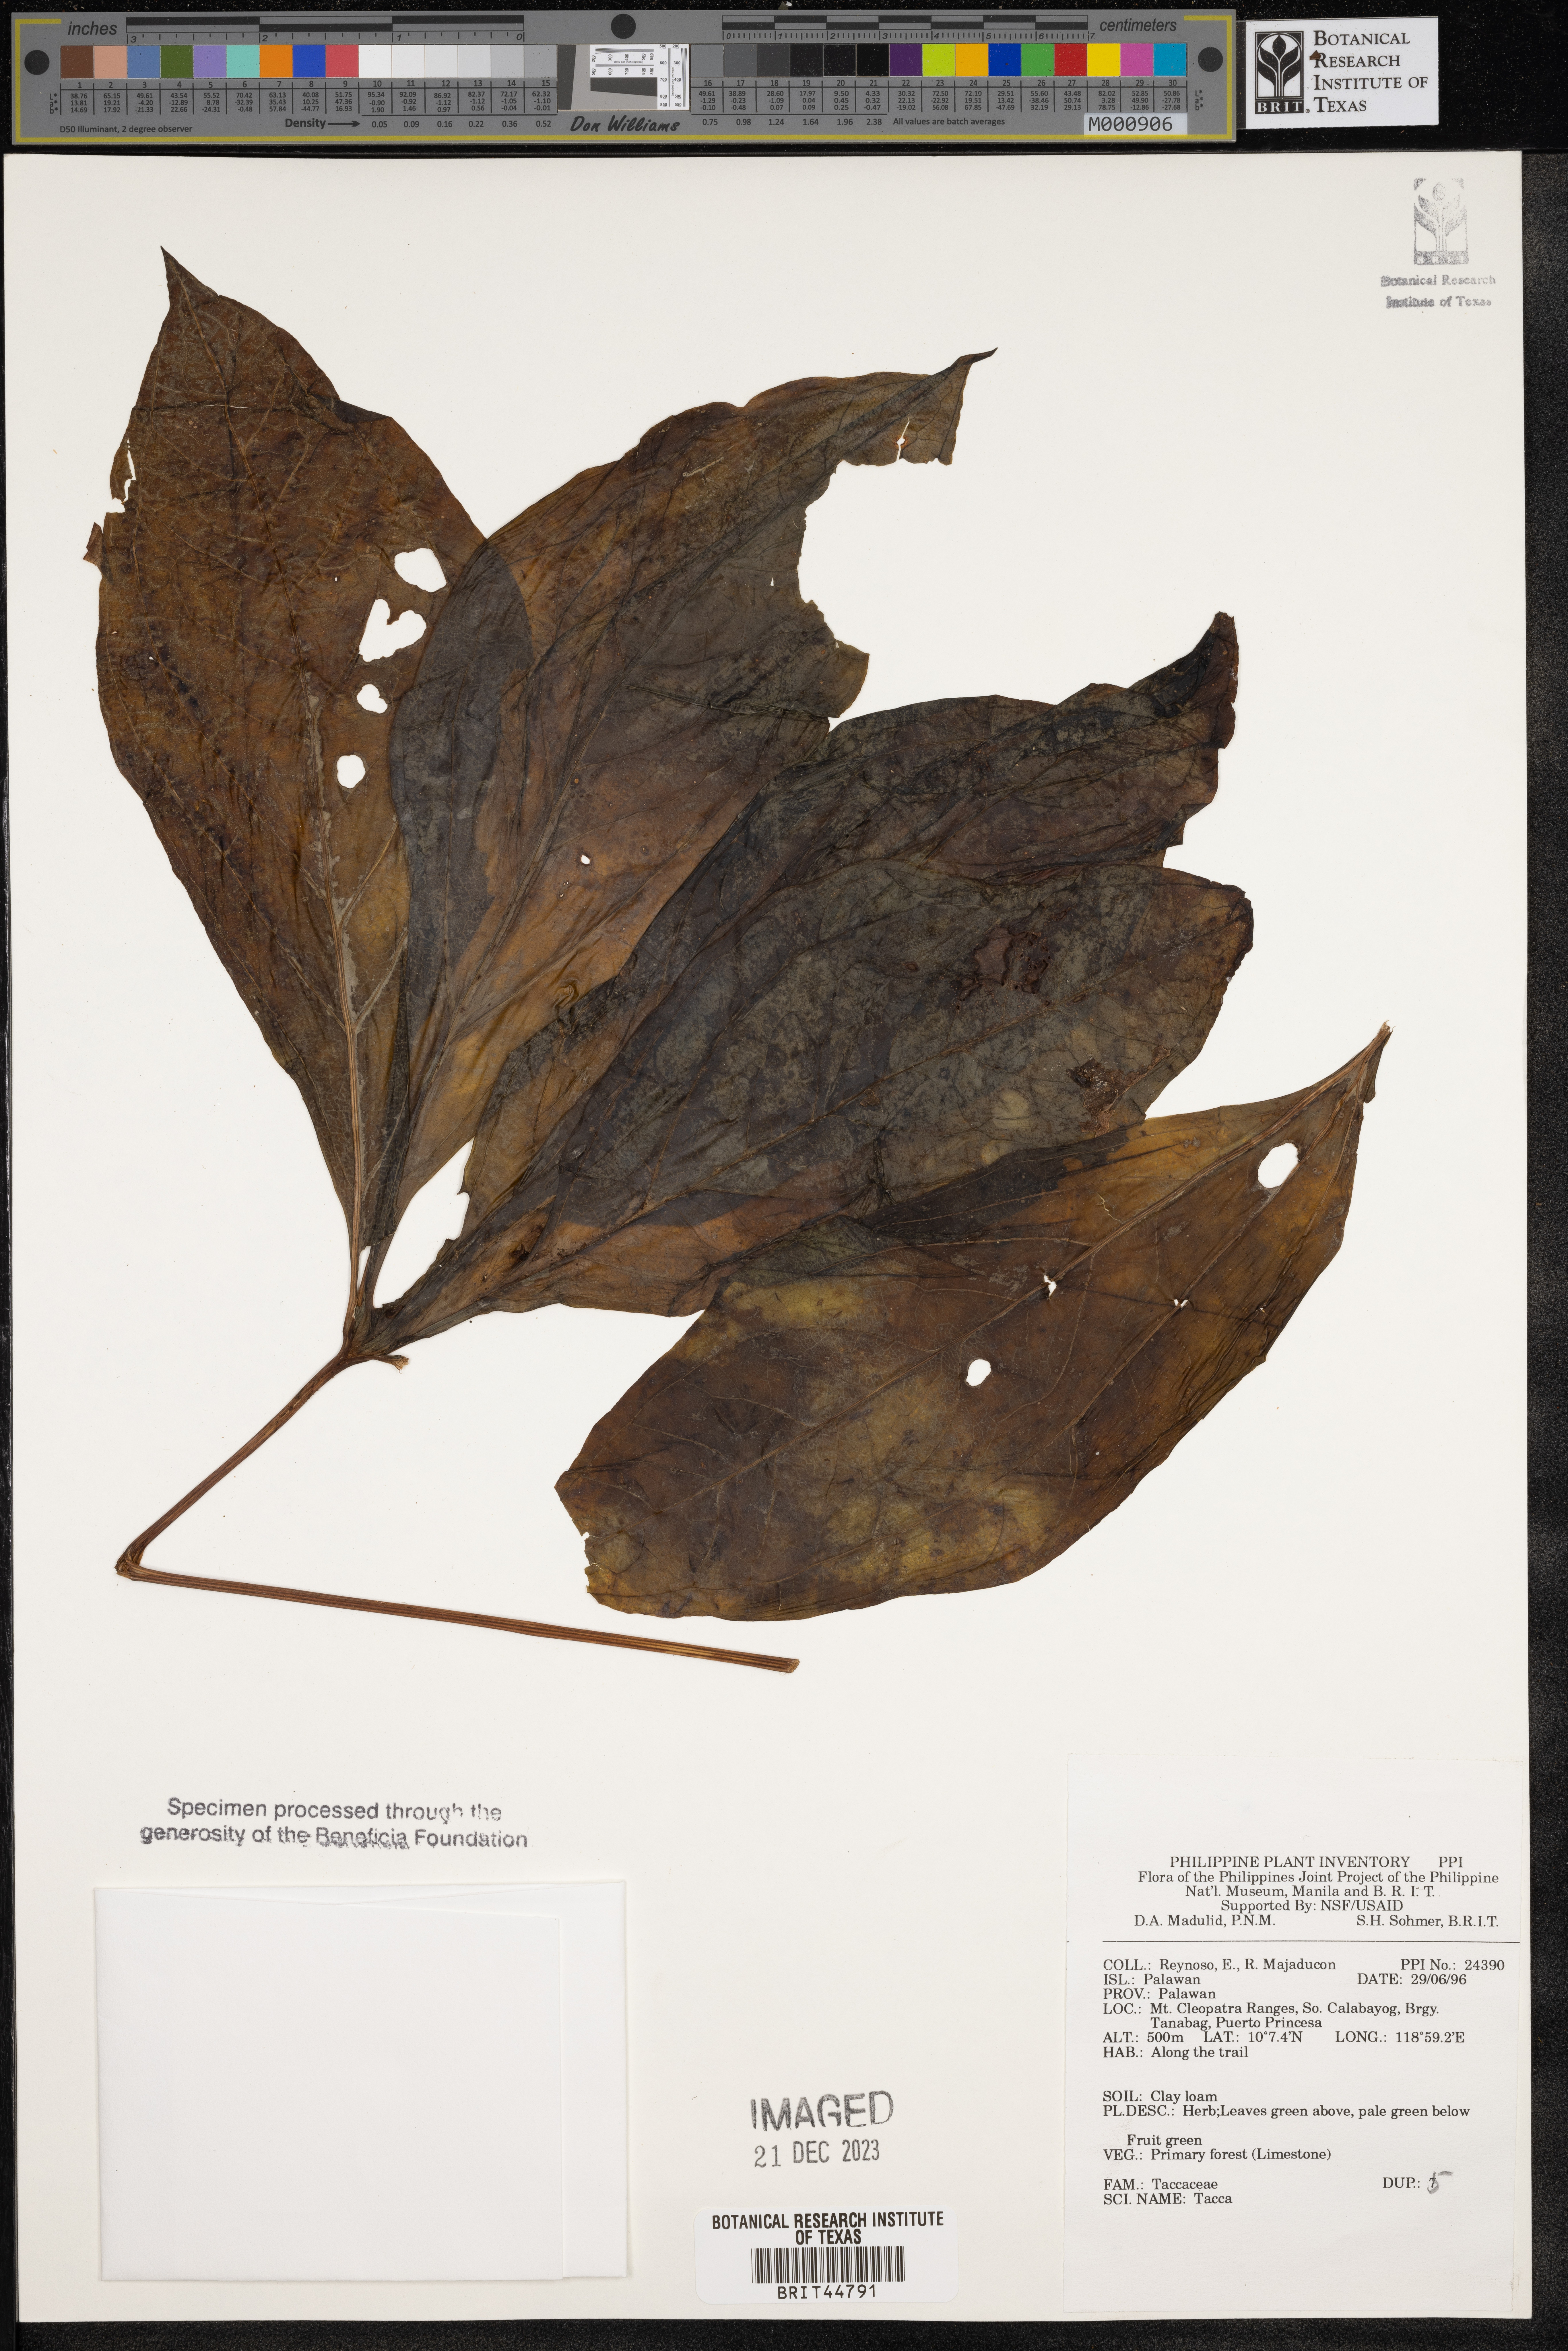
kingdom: Plantae
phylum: Tracheophyta
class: Liliopsida
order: Dioscoreales
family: Dioscoreaceae
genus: Tacca
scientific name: Tacca
